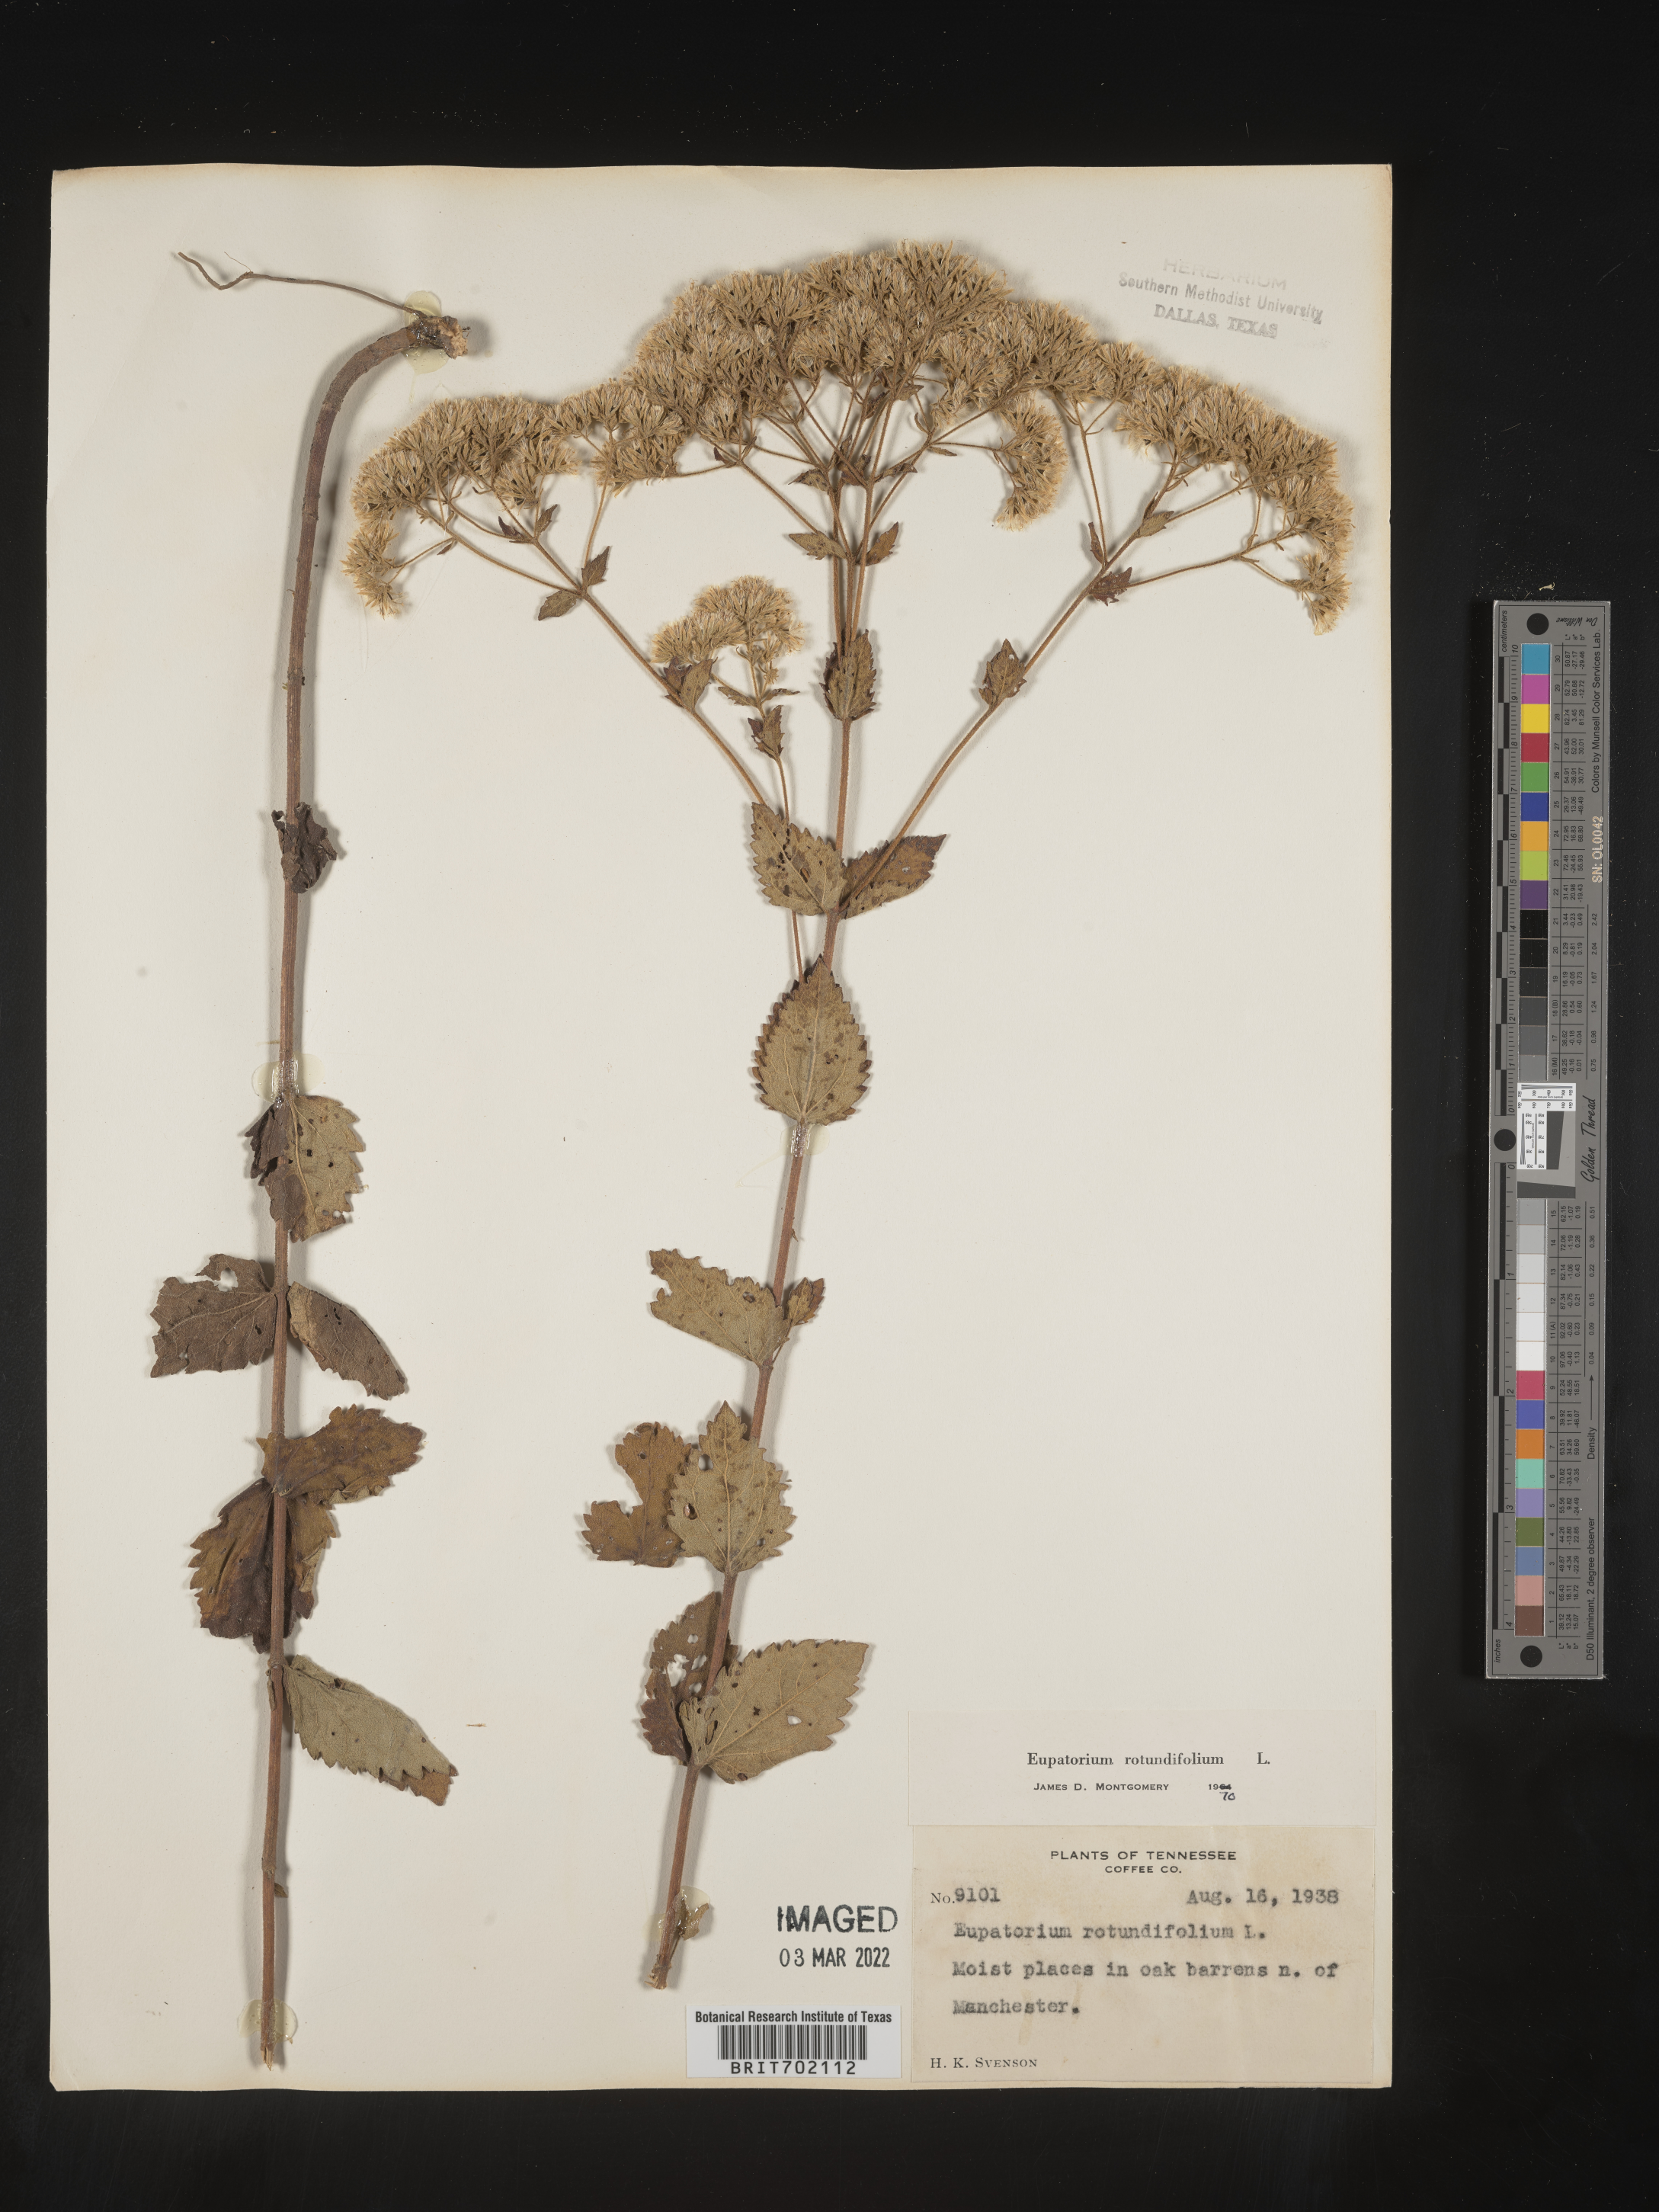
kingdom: Plantae
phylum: Tracheophyta
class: Magnoliopsida
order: Asterales
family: Asteraceae
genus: Eupatorium
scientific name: Eupatorium rotundifolium
